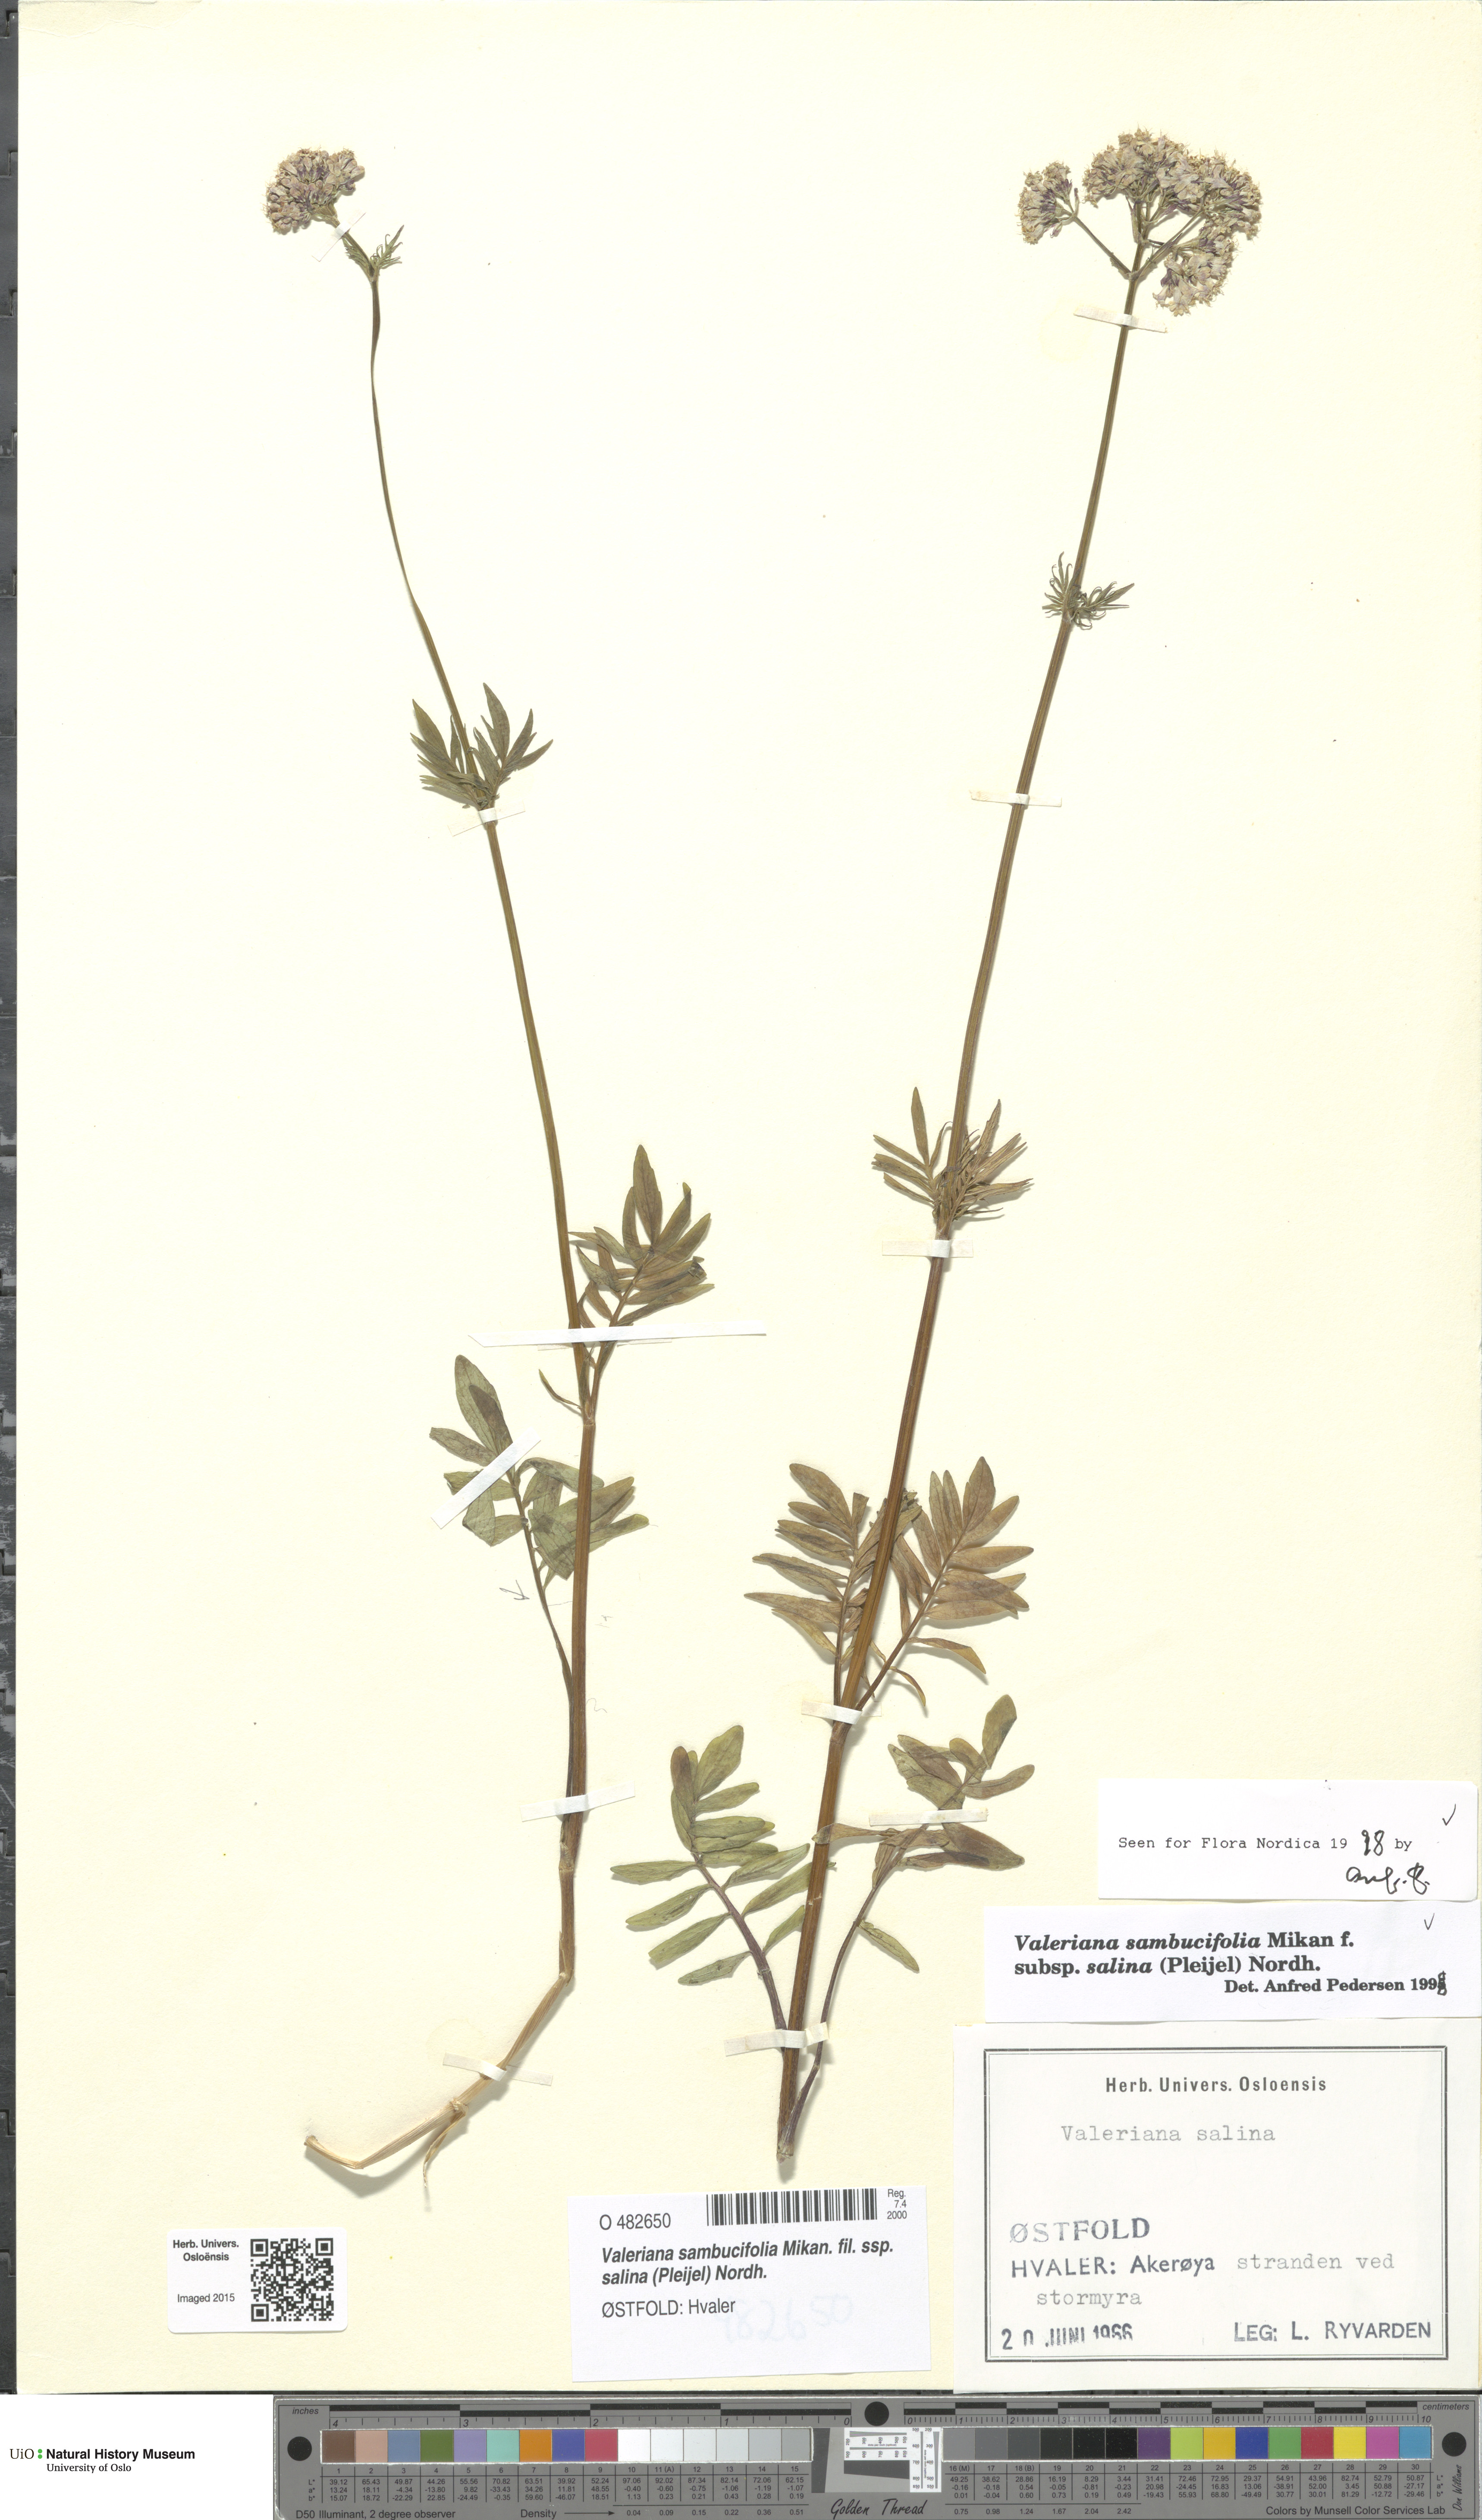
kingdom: Plantae
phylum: Tracheophyta
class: Magnoliopsida
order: Dipsacales
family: Caprifoliaceae
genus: Valeriana
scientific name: Valeriana sambucifolia
